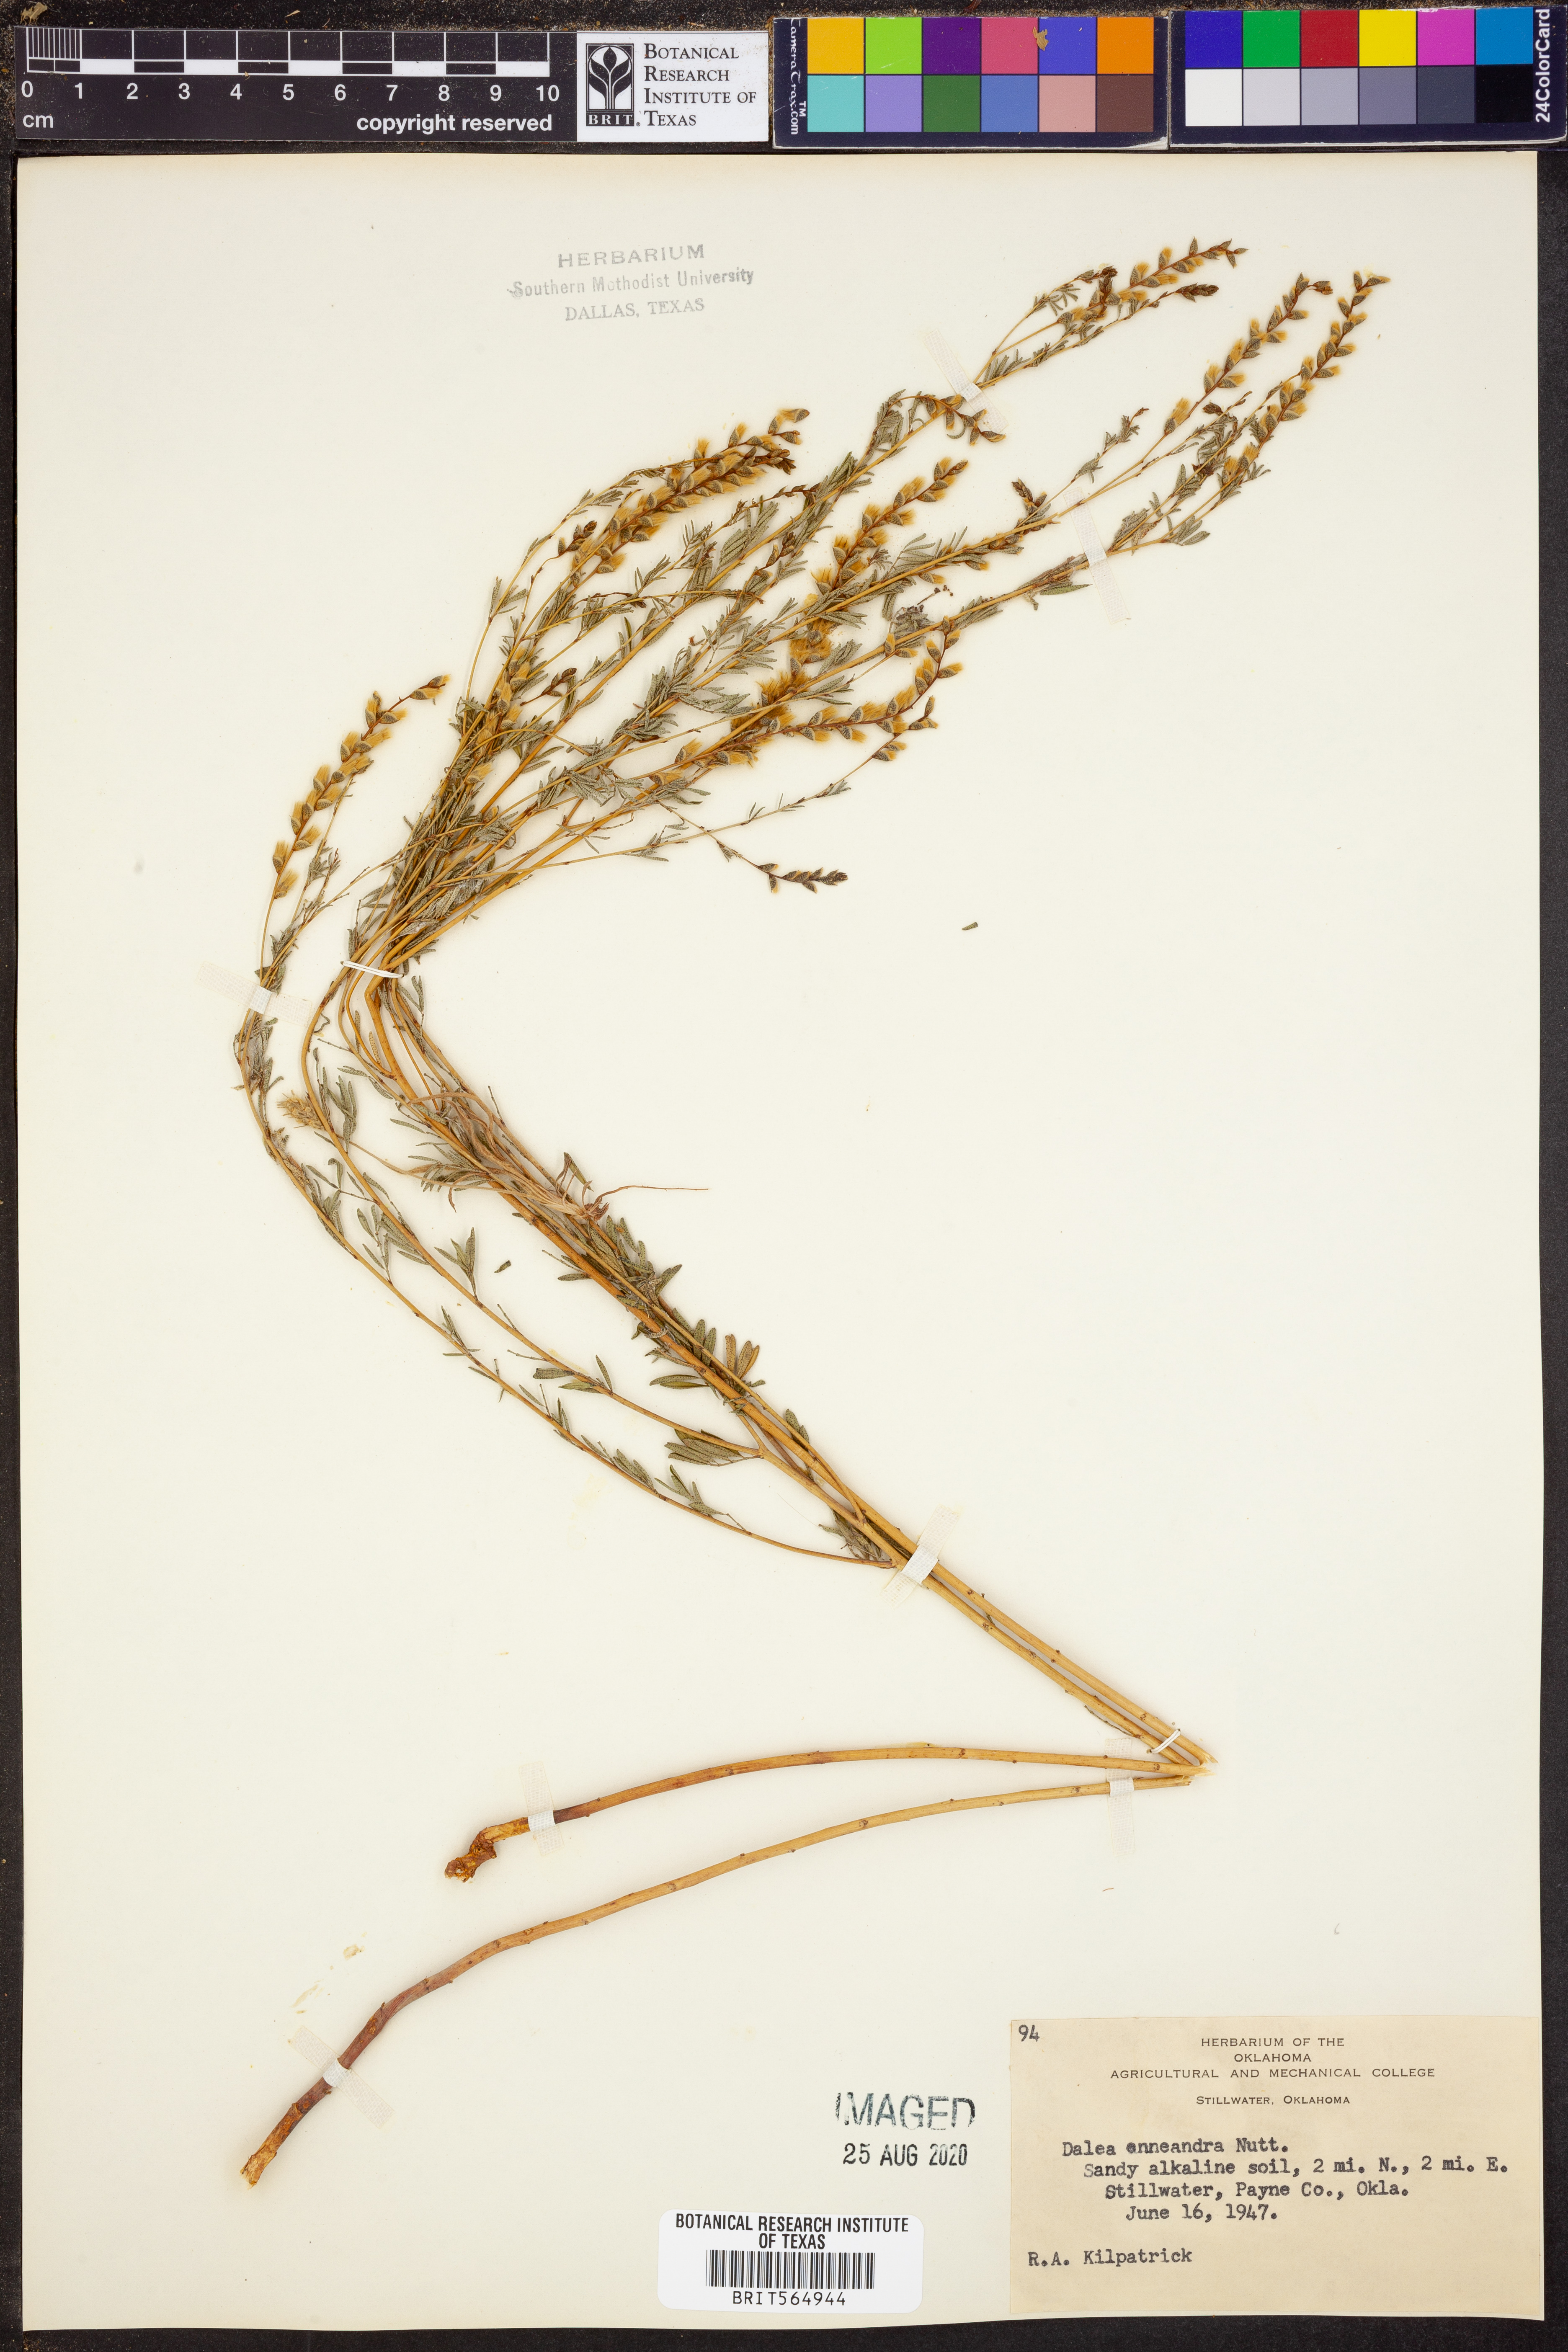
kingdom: Plantae
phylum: Tracheophyta
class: Magnoliopsida
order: Fabales
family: Fabaceae
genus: Dalea
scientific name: Dalea enneandra
